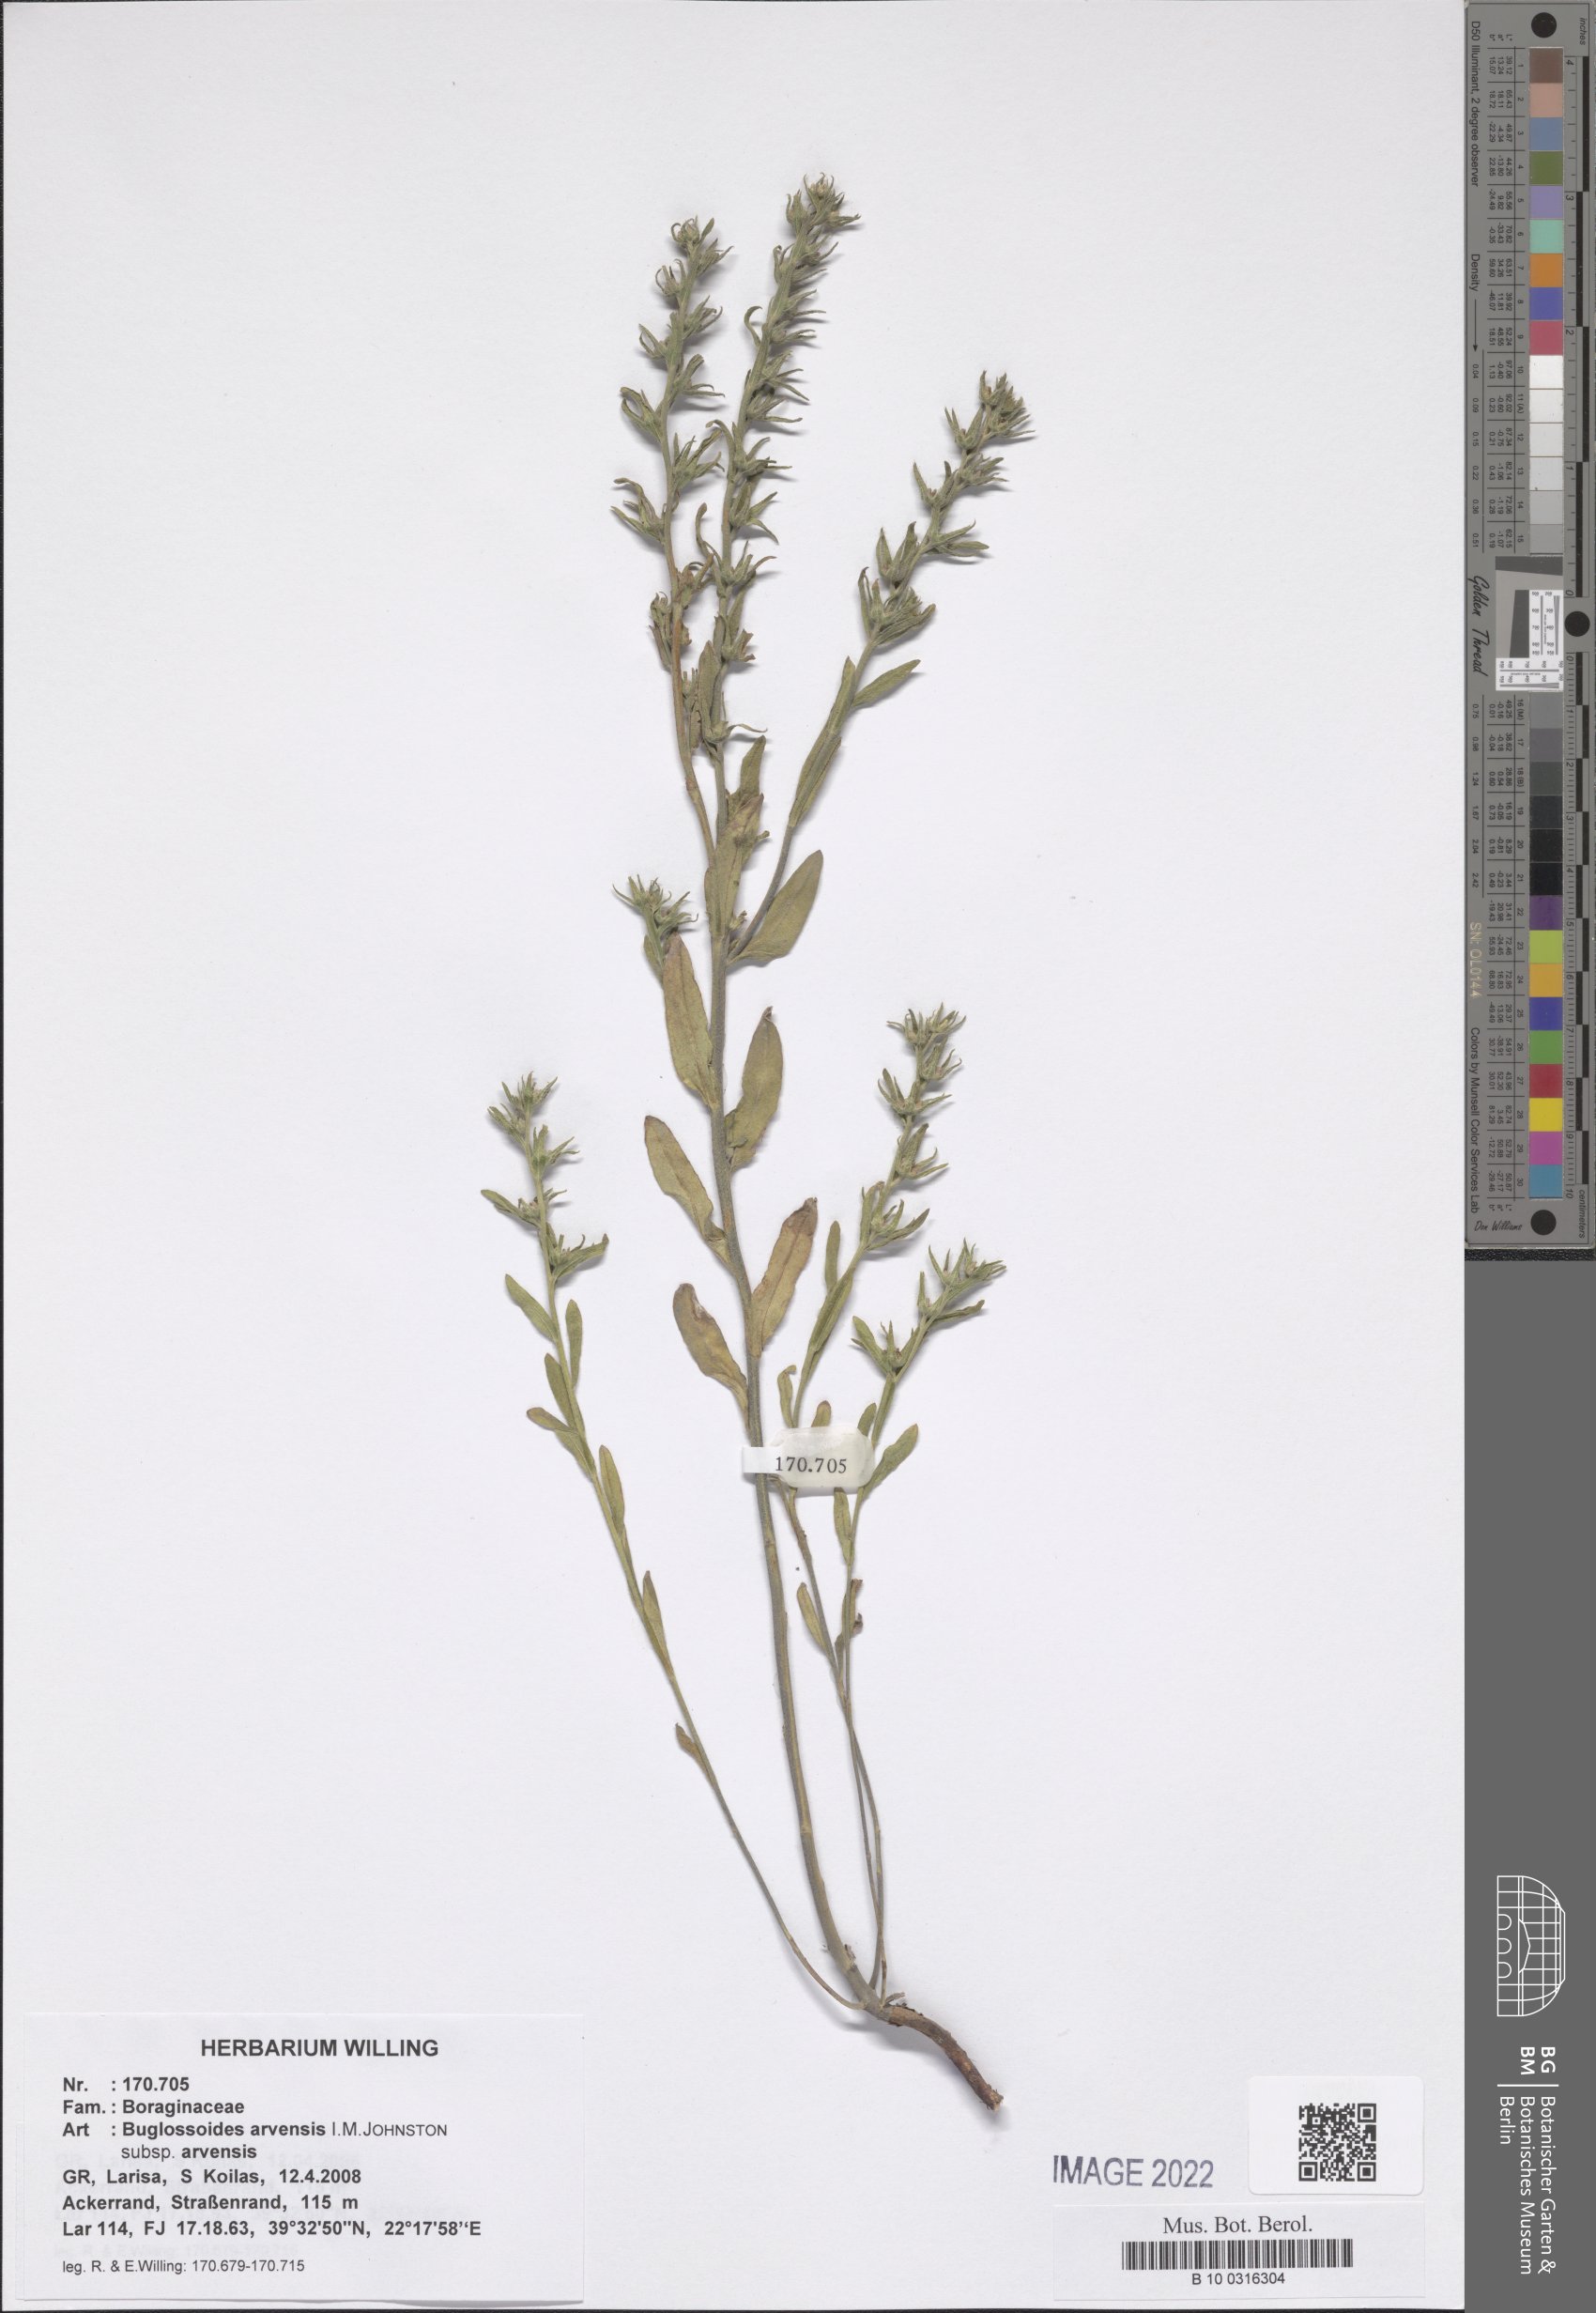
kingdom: Plantae
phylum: Tracheophyta
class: Magnoliopsida
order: Boraginales
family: Boraginaceae
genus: Buglossoides
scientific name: Buglossoides arvensis
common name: Corn gromwell
